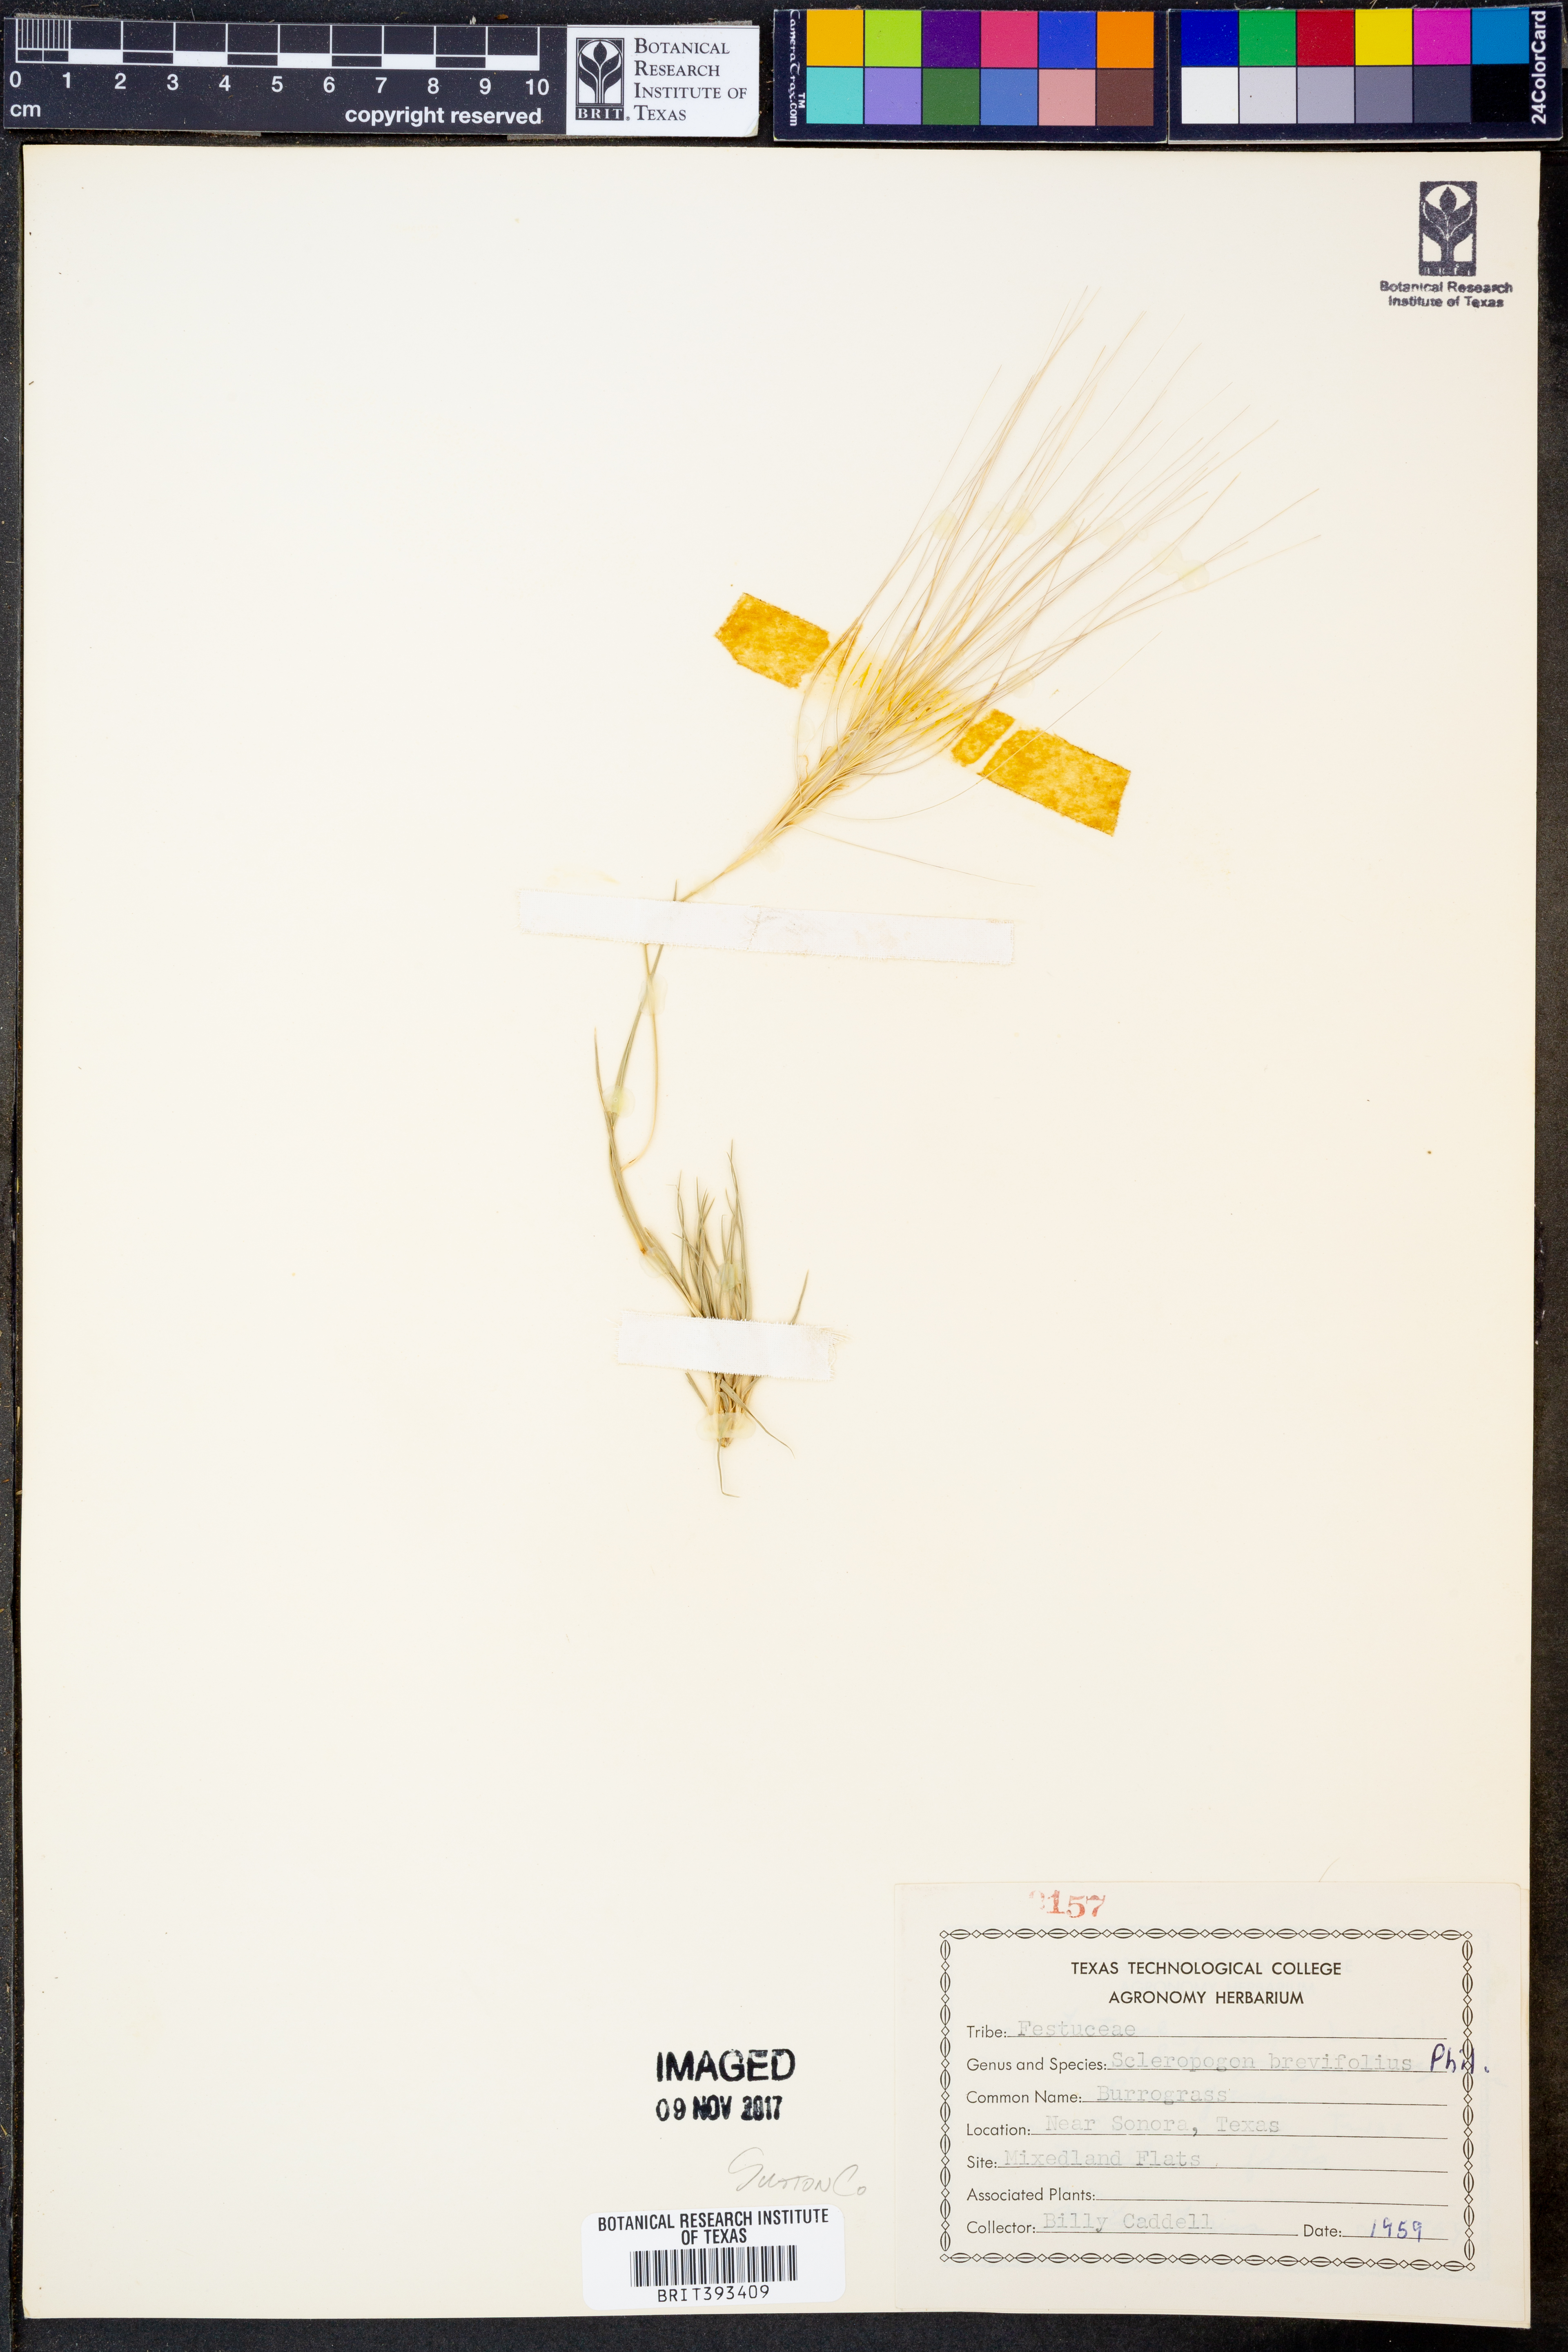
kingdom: Plantae
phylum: Tracheophyta
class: Liliopsida
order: Poales
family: Poaceae
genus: Scleropogon
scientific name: Scleropogon brevifolius
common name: Burro grass
